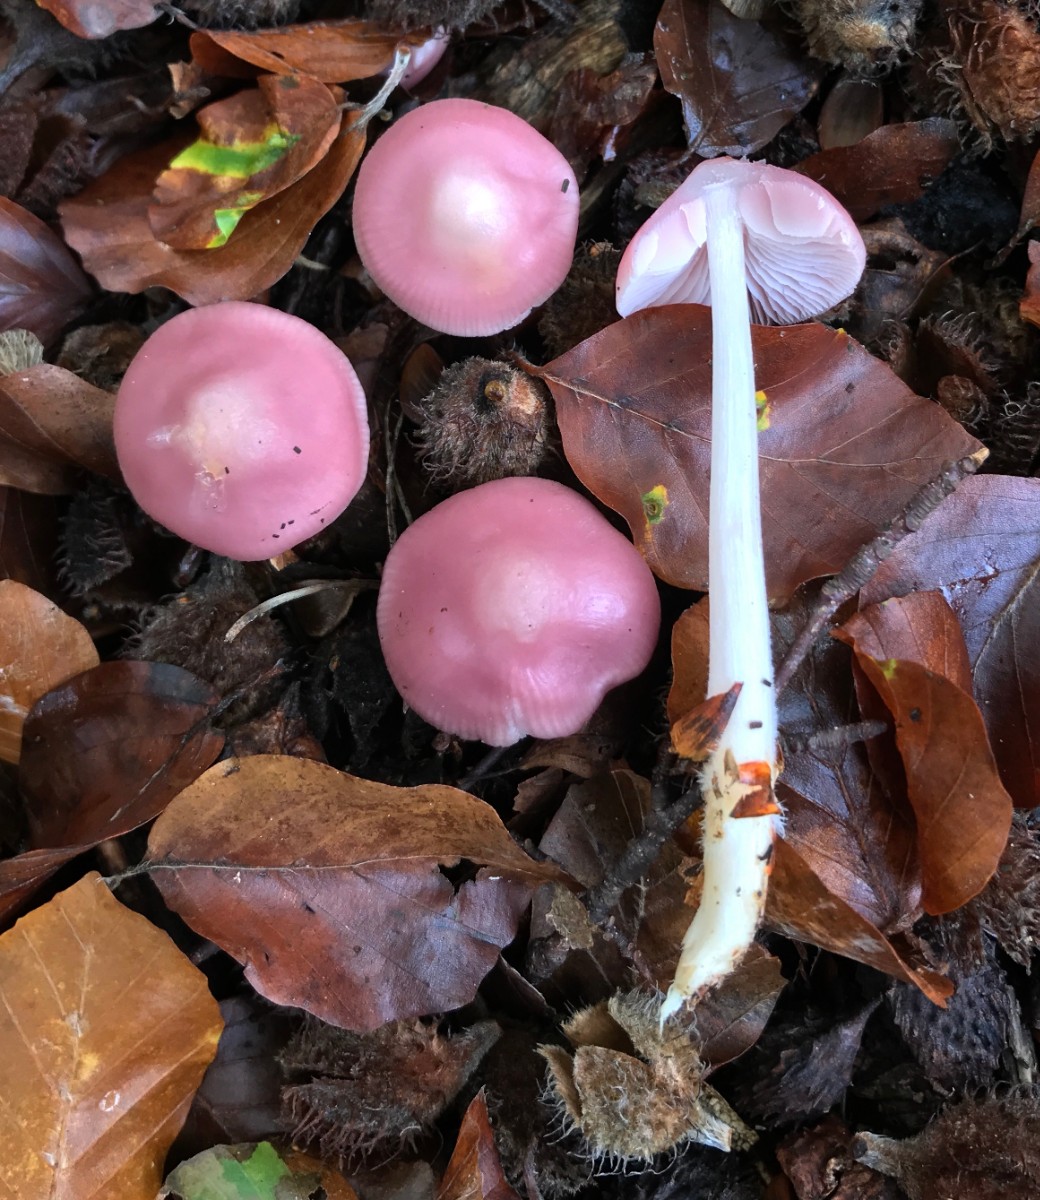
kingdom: Fungi
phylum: Basidiomycota
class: Agaricomycetes
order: Agaricales
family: Mycenaceae
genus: Mycena
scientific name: Mycena rosea
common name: rosa huesvamp
